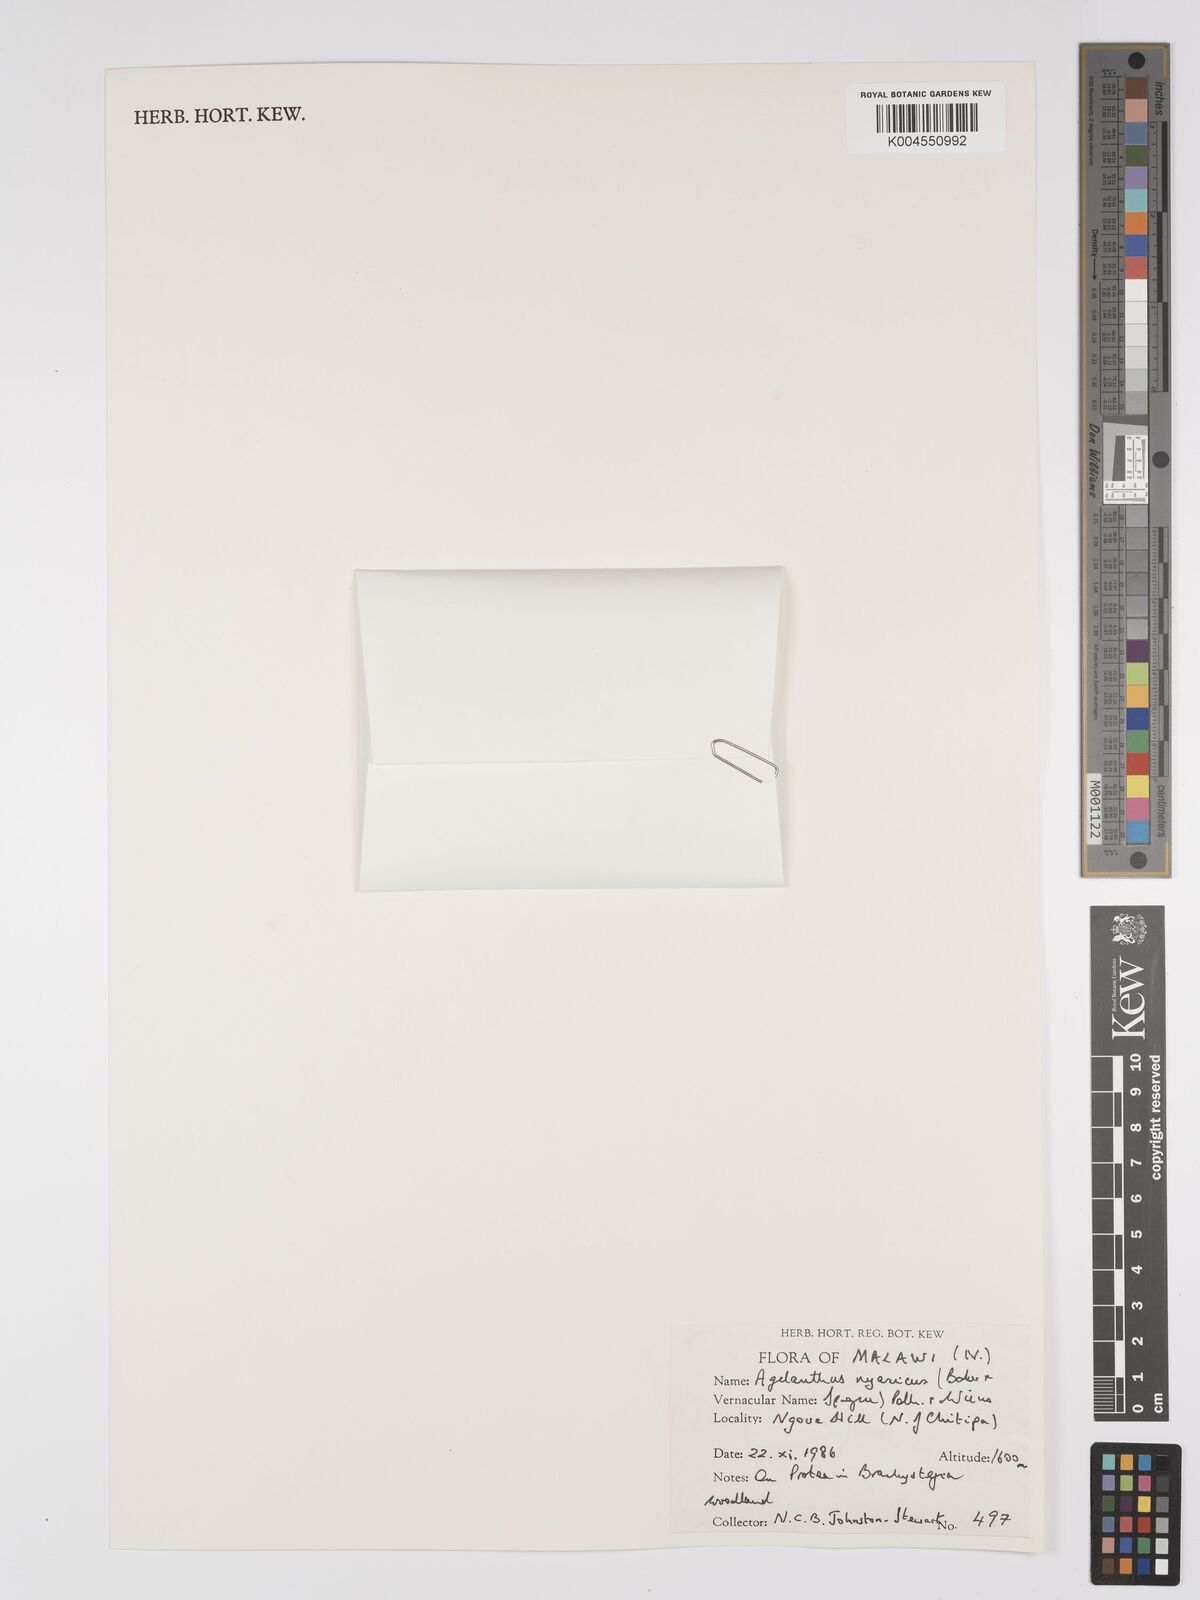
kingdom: Plantae
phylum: Tracheophyta
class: Magnoliopsida
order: Santalales
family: Loranthaceae
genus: Agelanthus
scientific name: Agelanthus nyasicus
